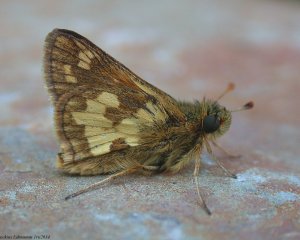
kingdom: Animalia
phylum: Arthropoda
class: Insecta
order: Lepidoptera
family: Hesperiidae
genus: Polites
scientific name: Polites coras
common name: Peck's Skipper
